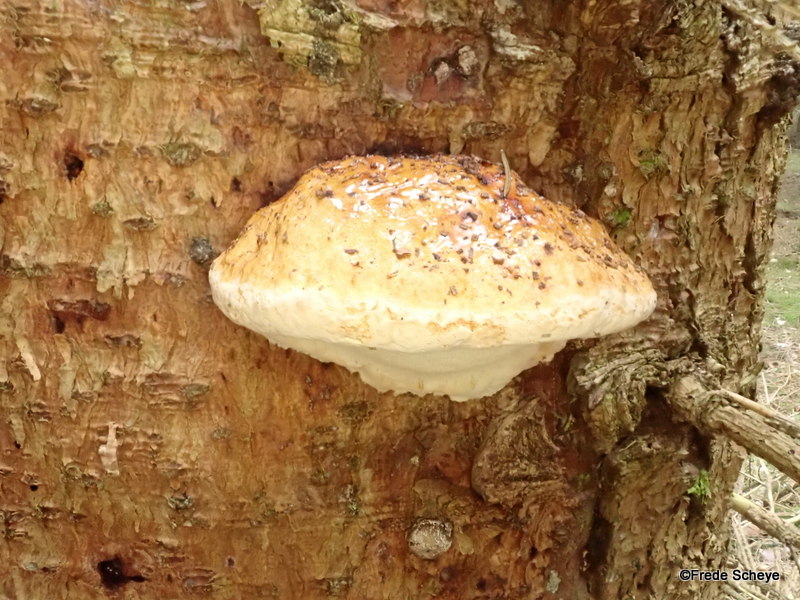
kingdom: Fungi
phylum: Basidiomycota
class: Agaricomycetes
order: Polyporales
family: Fomitopsidaceae
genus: Fomitopsis
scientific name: Fomitopsis pinicola
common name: randbæltet hovporesvamp
